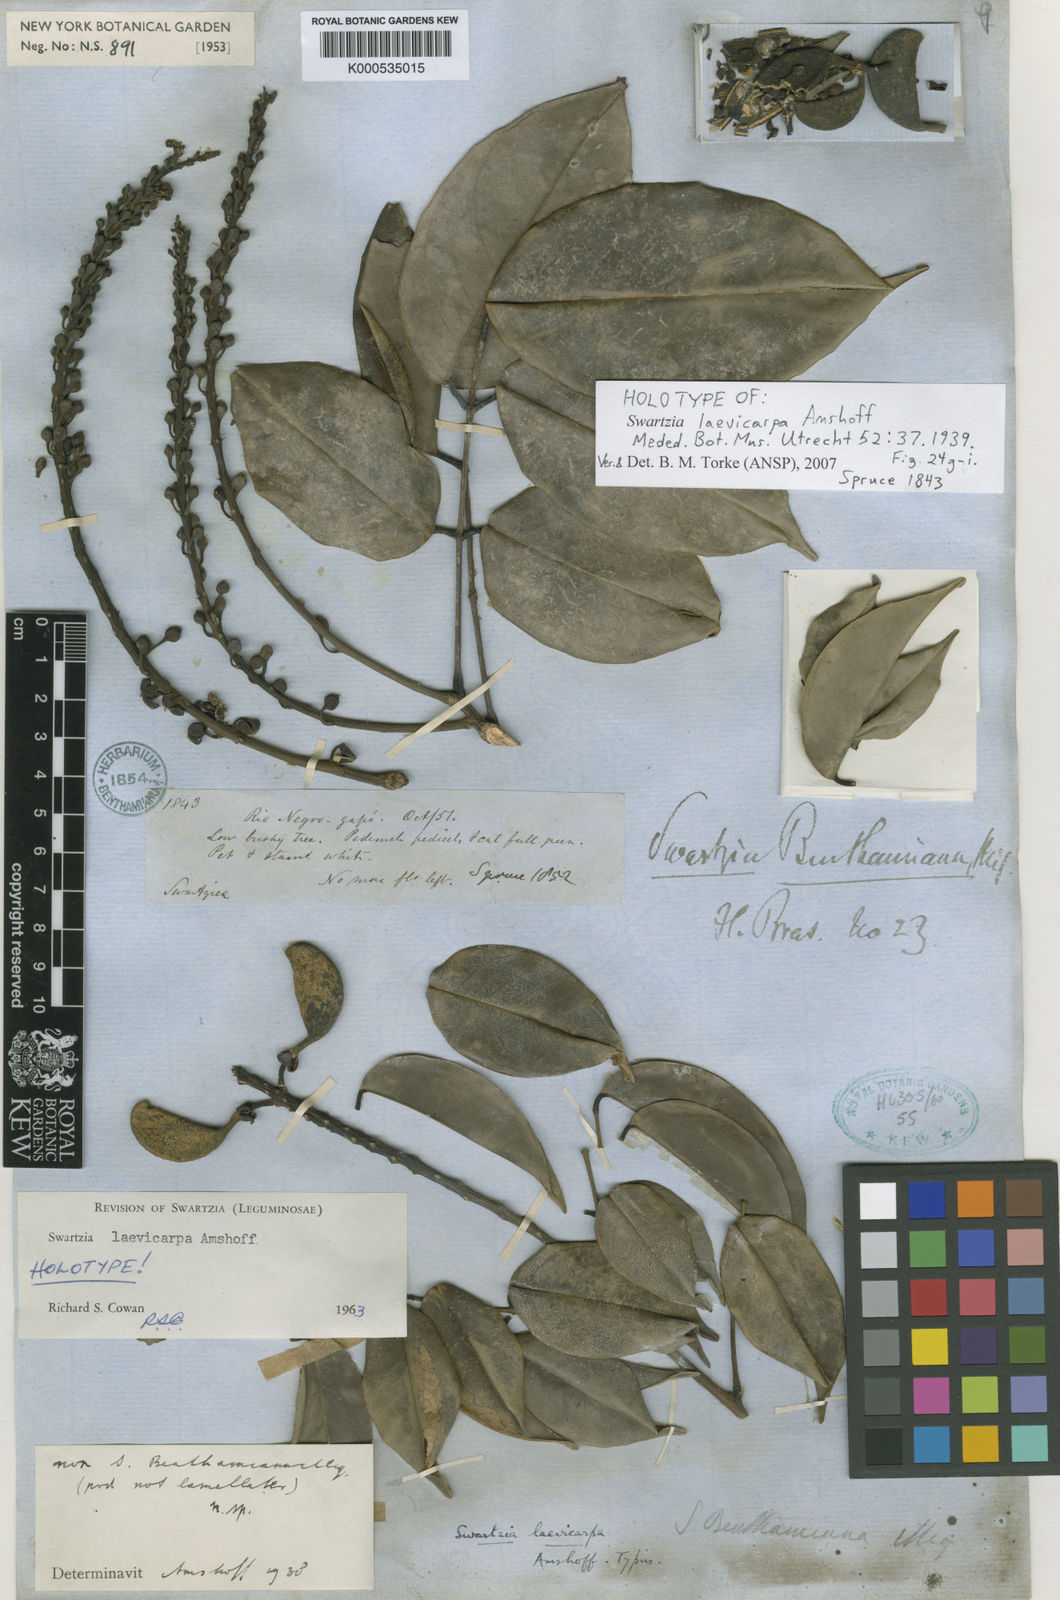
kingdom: Plantae
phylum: Tracheophyta
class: Magnoliopsida
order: Fabales
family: Fabaceae
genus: Swartzia
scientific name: Swartzia laevicarpa
